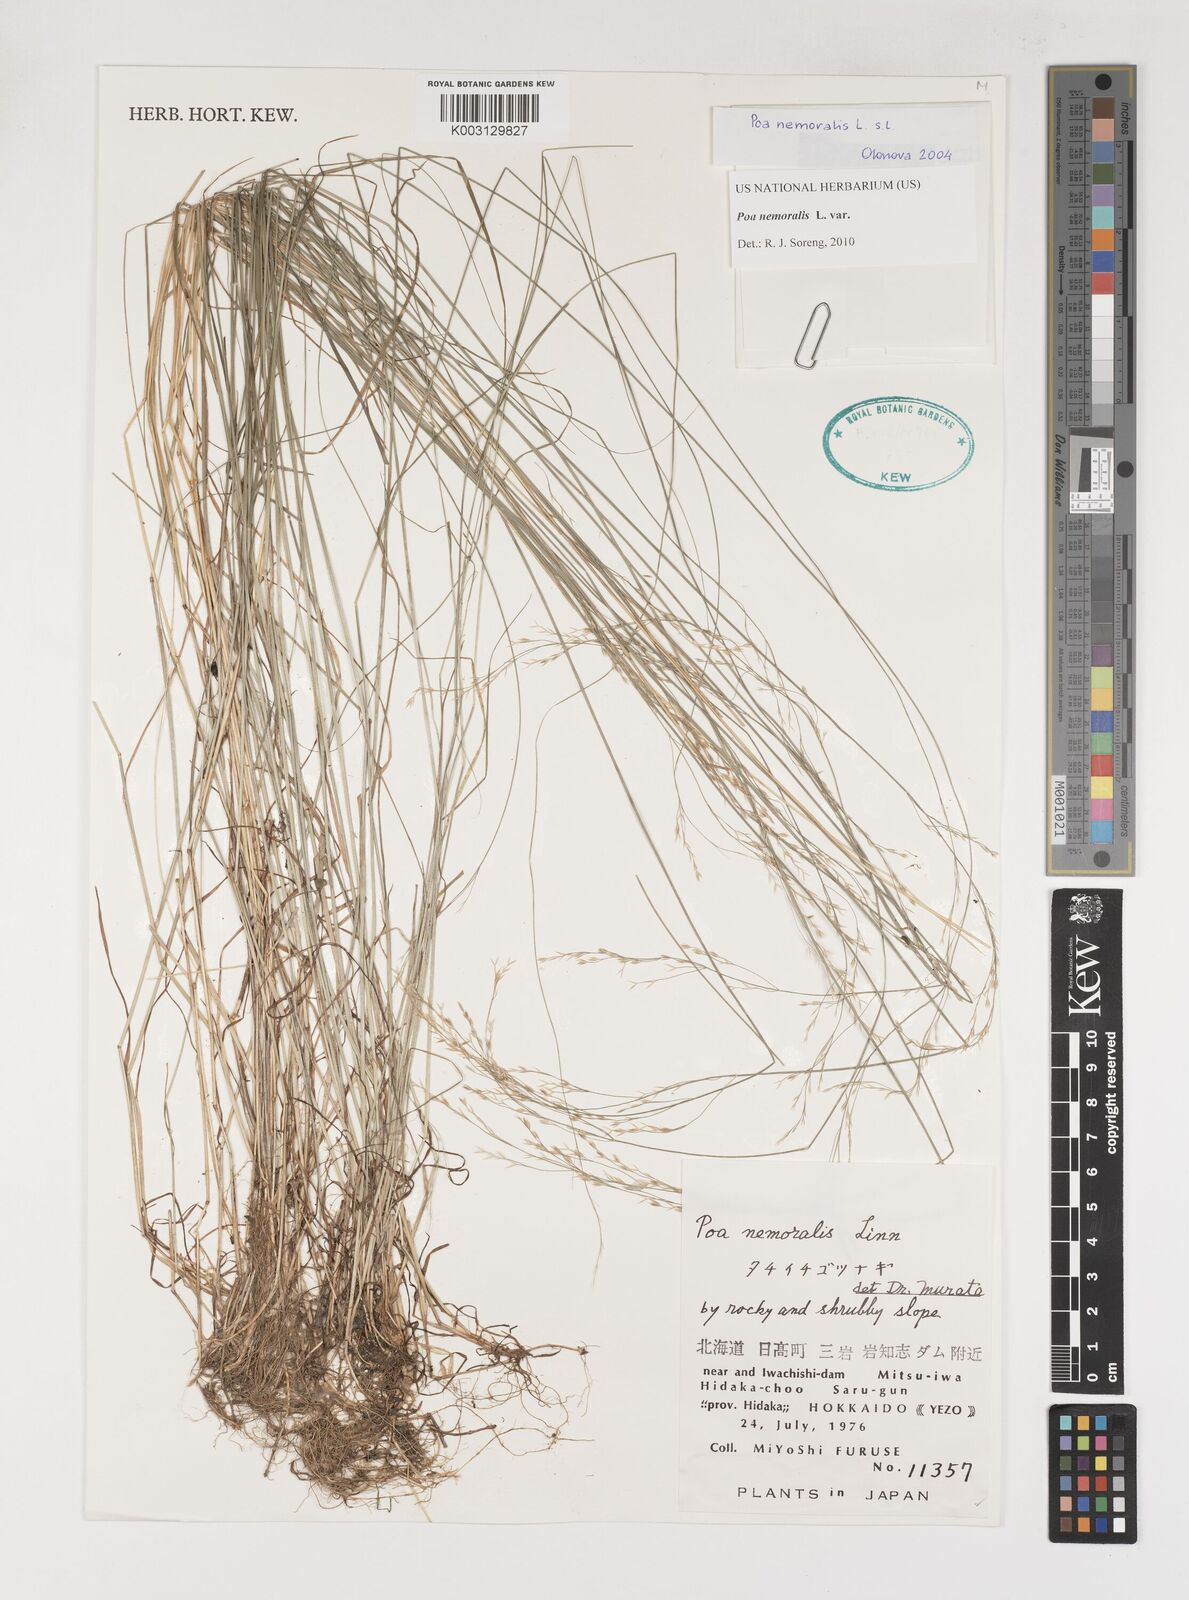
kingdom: Plantae
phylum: Tracheophyta
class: Liliopsida
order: Poales
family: Poaceae
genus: Poa
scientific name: Poa nemoralis
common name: Wood bluegrass
